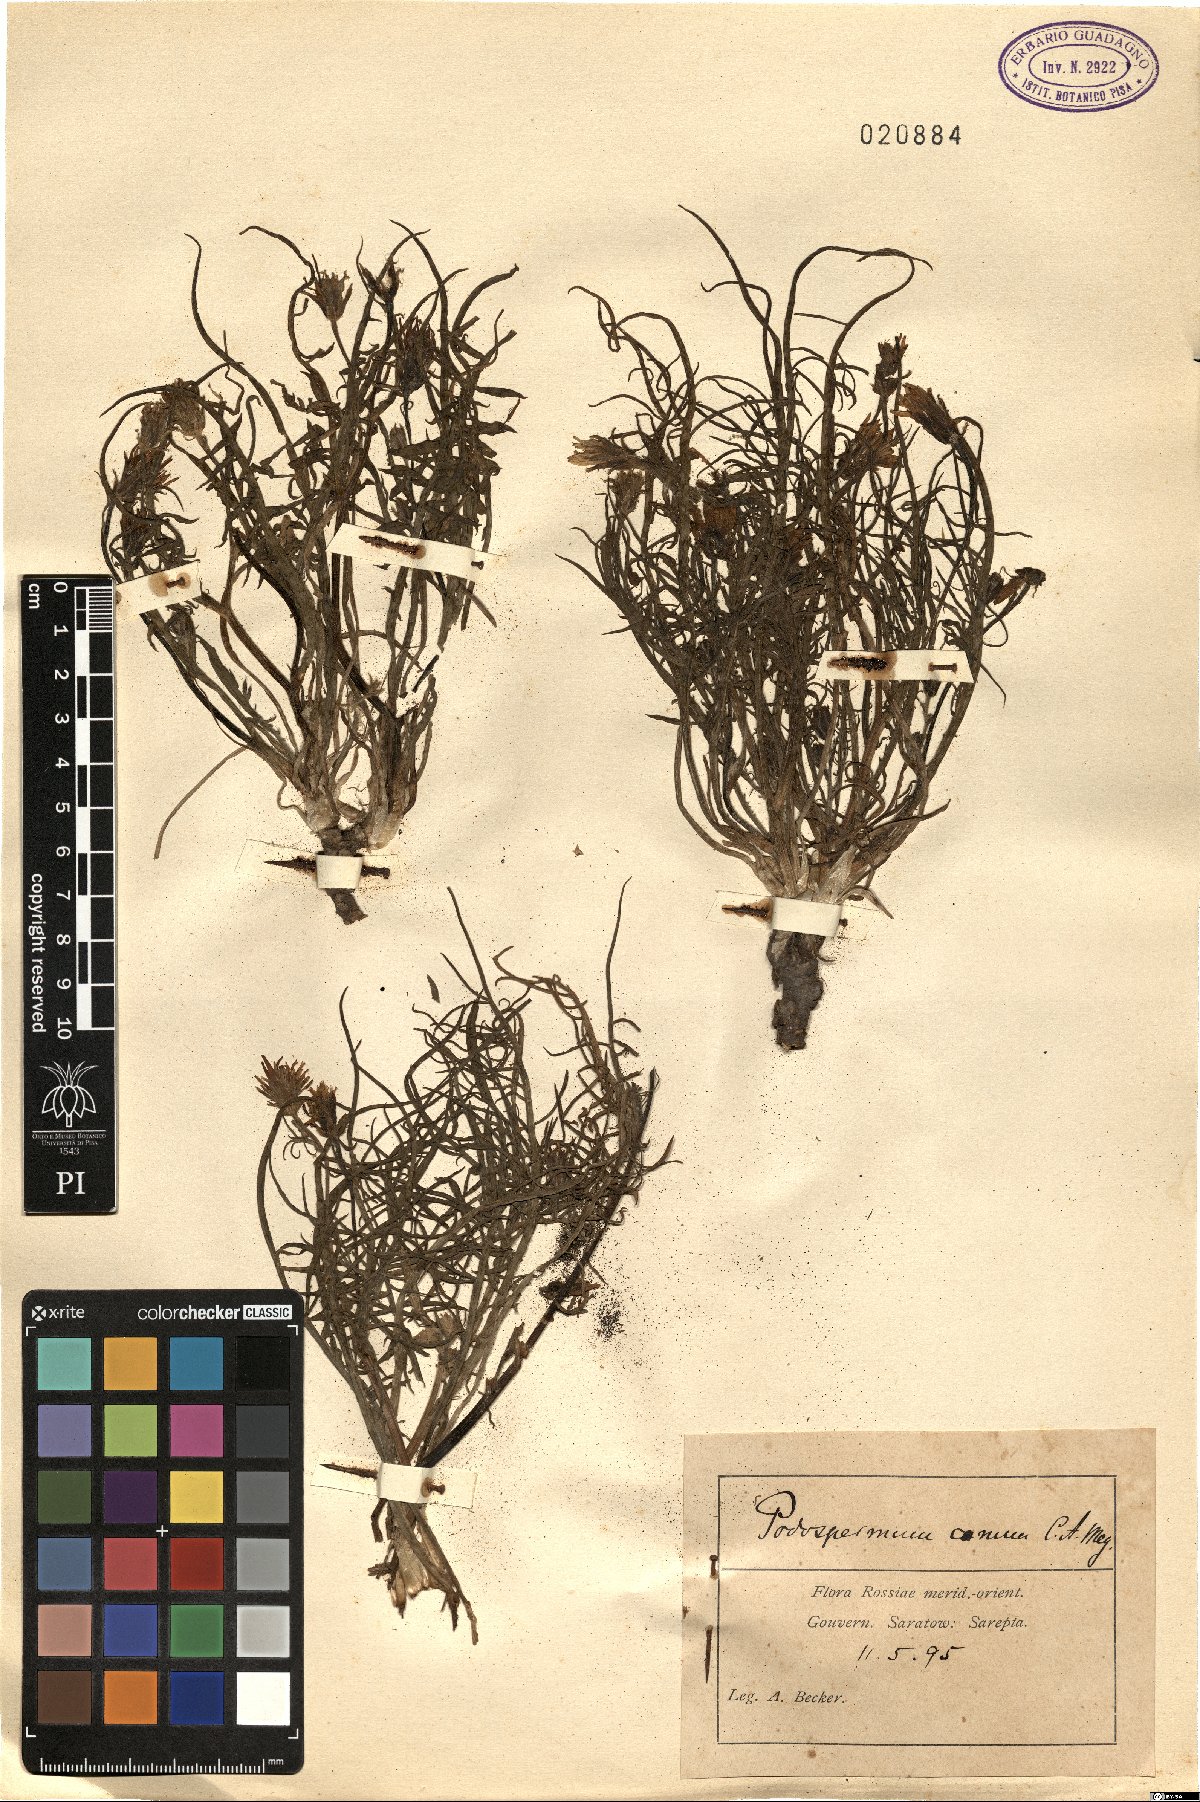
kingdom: Plantae
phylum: Tracheophyta
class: Magnoliopsida
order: Asterales
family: Asteraceae
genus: Scorzonera
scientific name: Scorzonera cana
